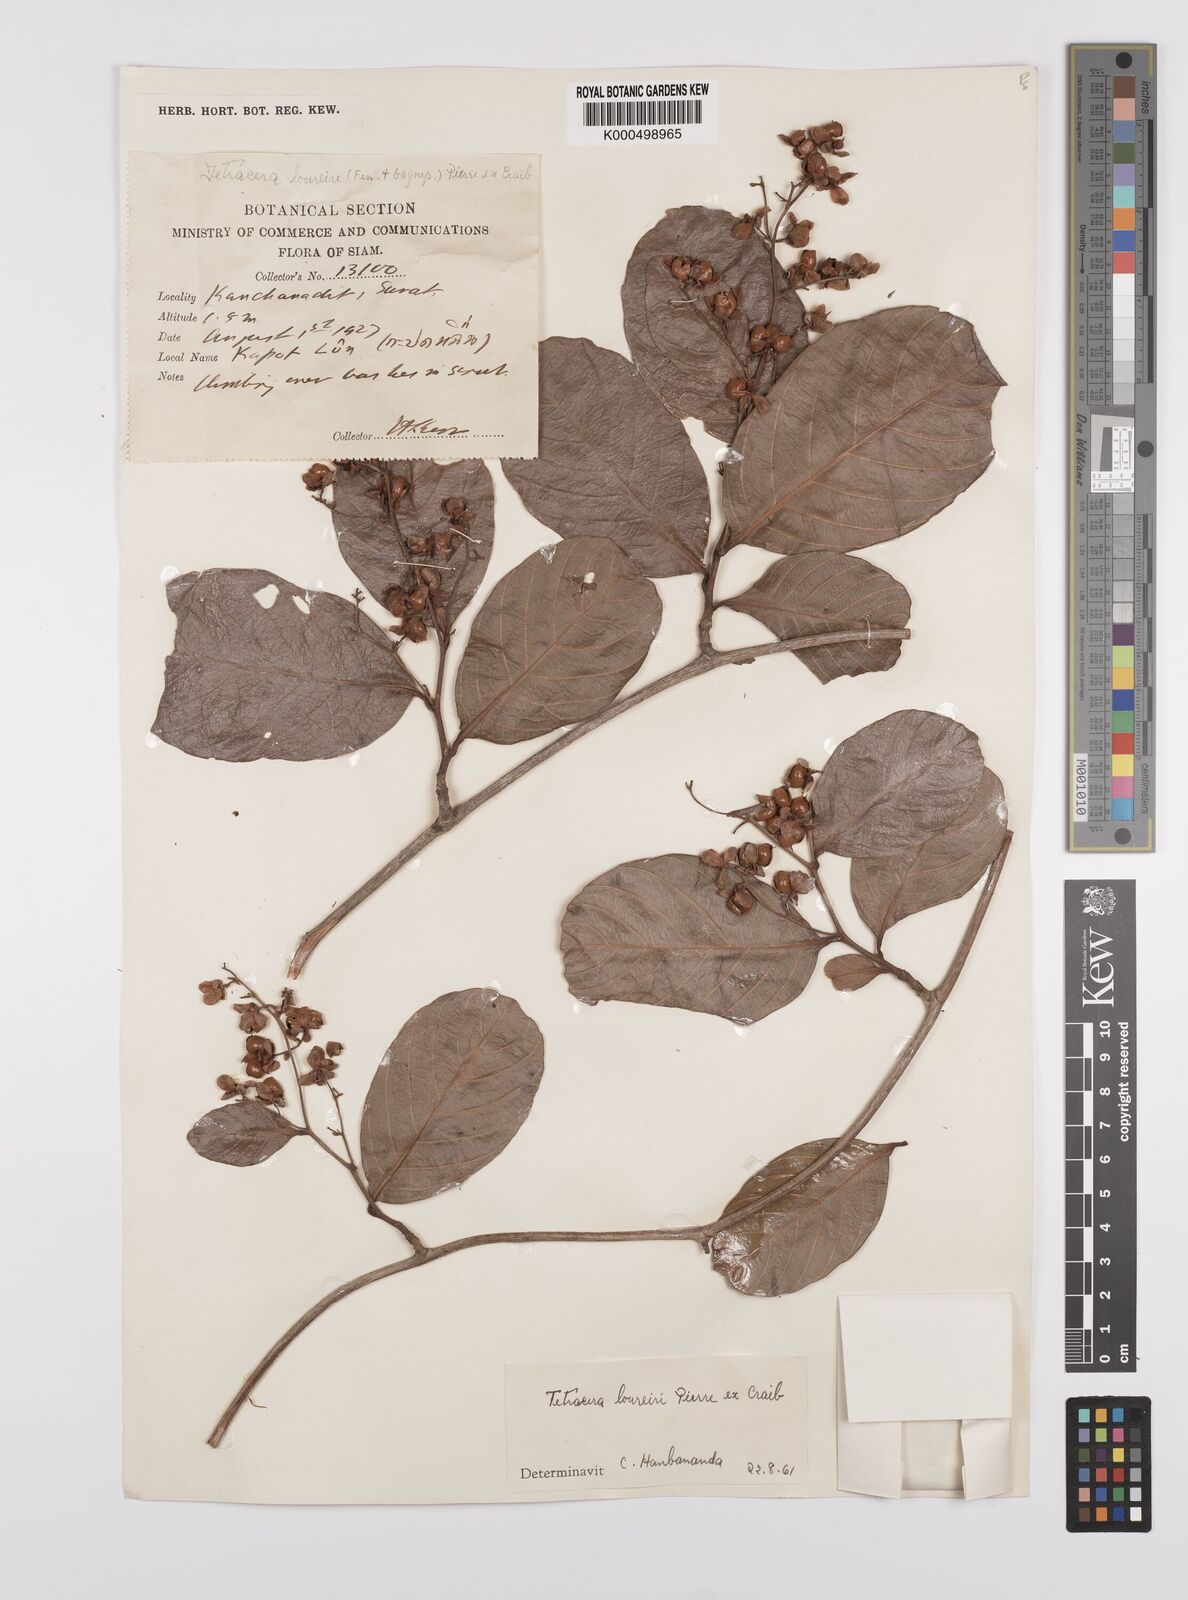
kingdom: Plantae
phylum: Tracheophyta
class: Magnoliopsida
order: Dilleniales
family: Dilleniaceae
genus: Tetracera
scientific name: Tetracera scandens
